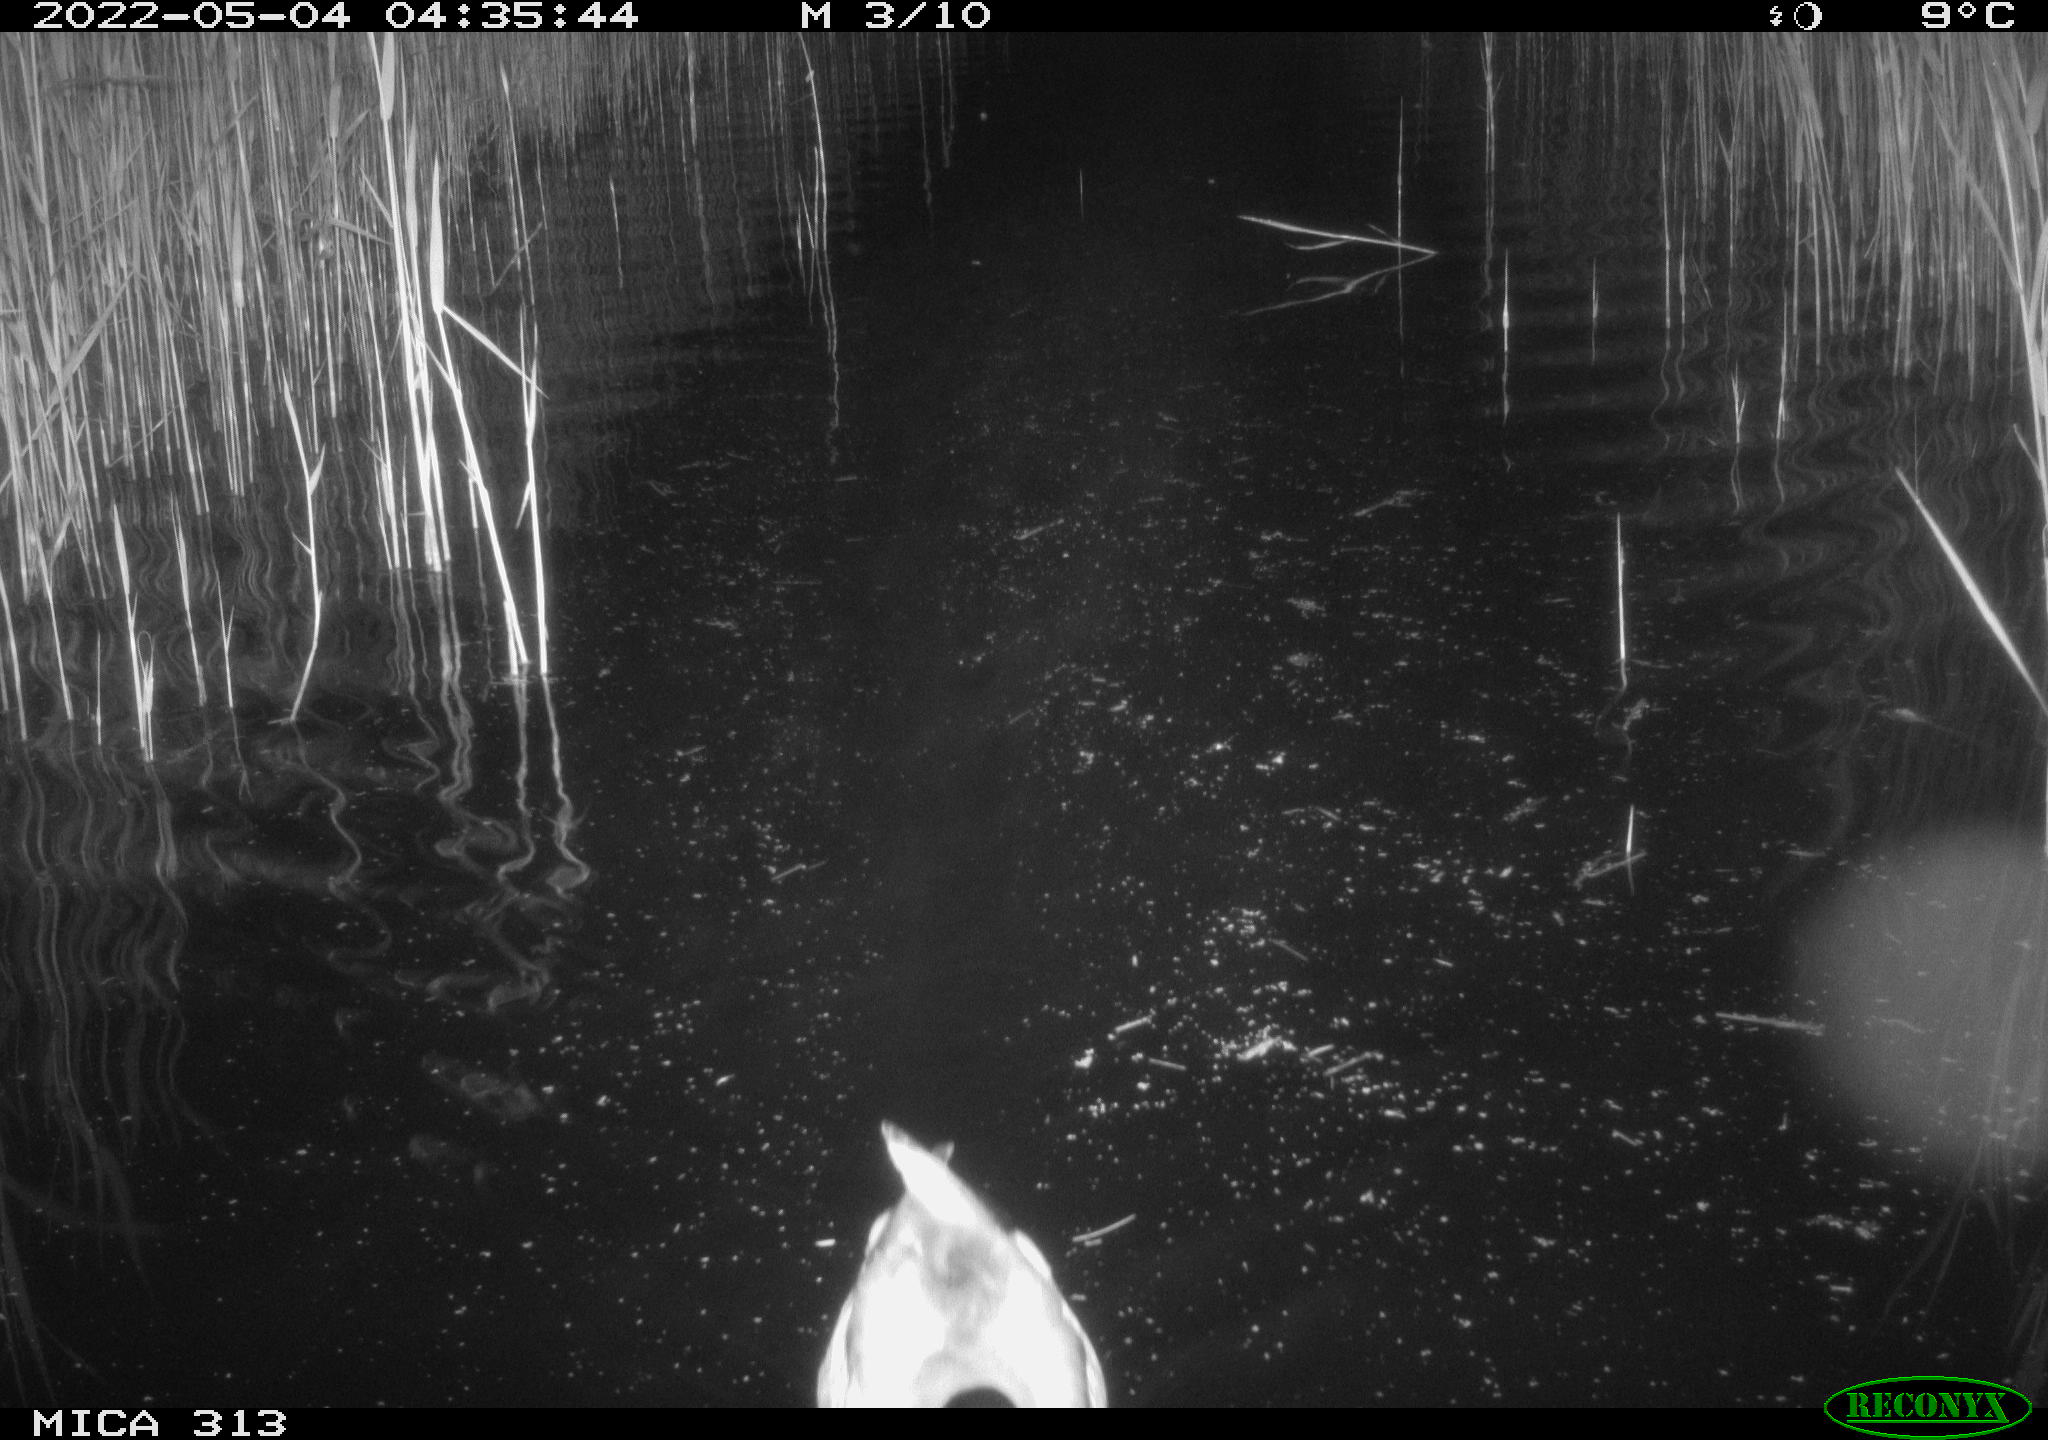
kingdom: Animalia
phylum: Chordata
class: Aves
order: Anseriformes
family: Anatidae
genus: Anas
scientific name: Anas platyrhynchos
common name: Mallard
